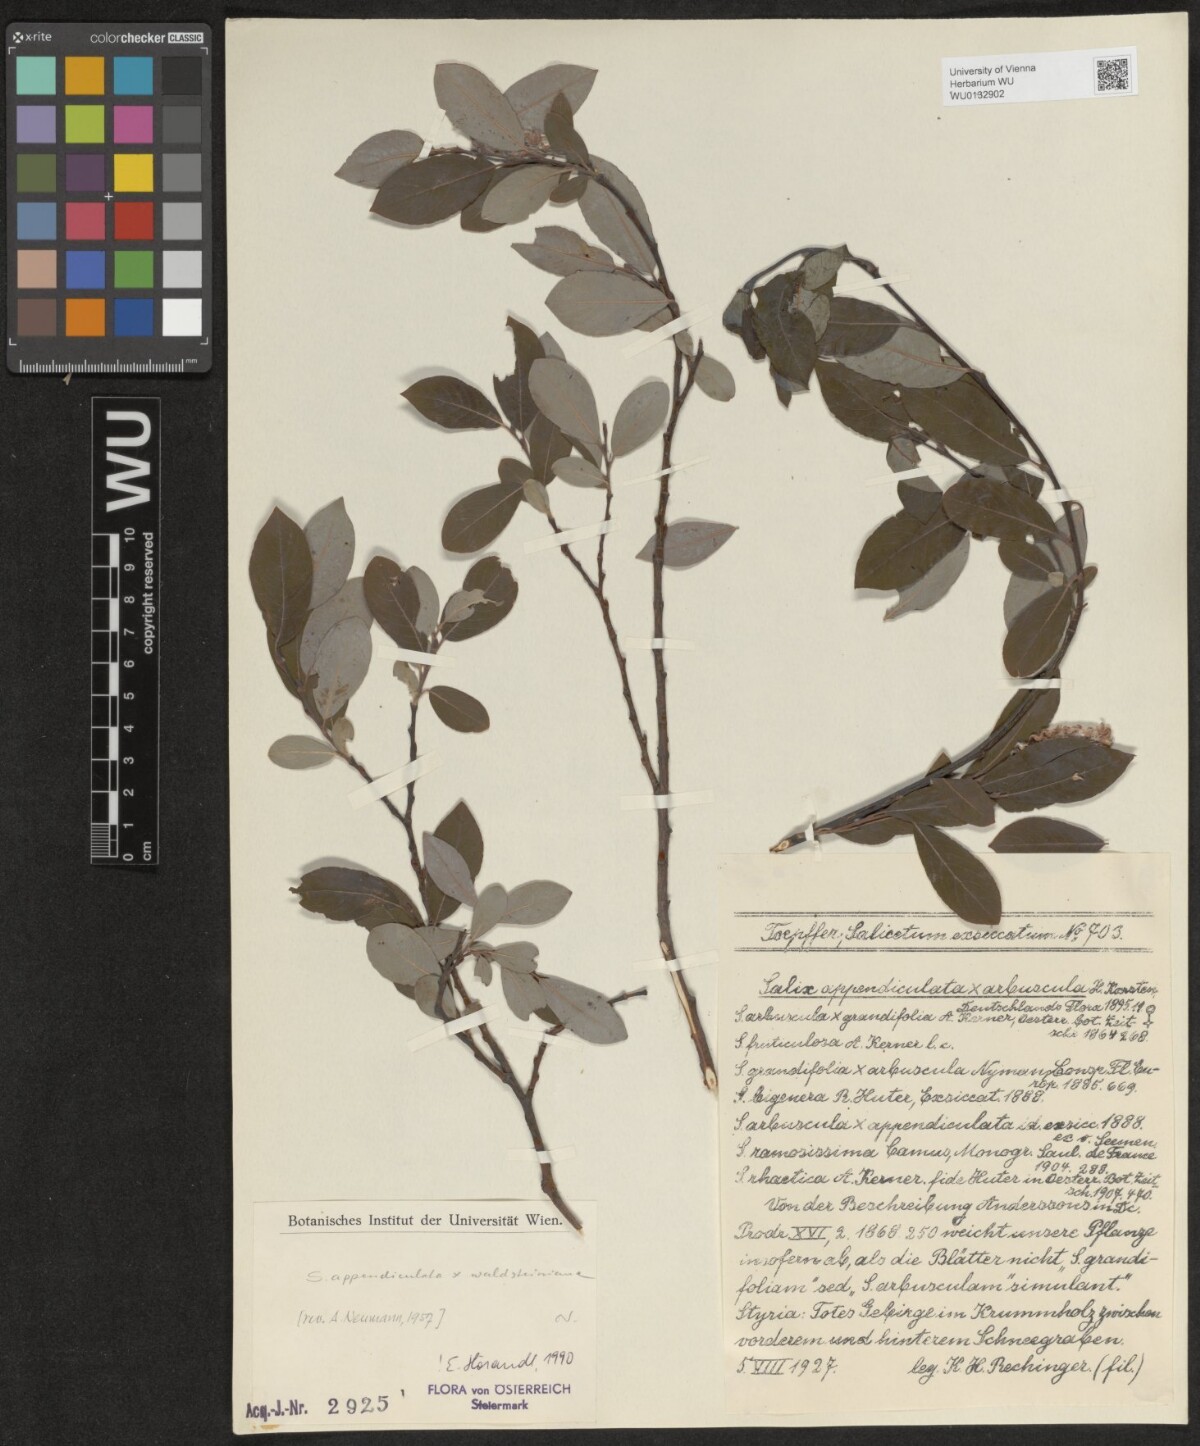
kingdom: Plantae
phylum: Tracheophyta
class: Magnoliopsida
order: Malpighiales
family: Salicaceae
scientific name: Salicaceae
